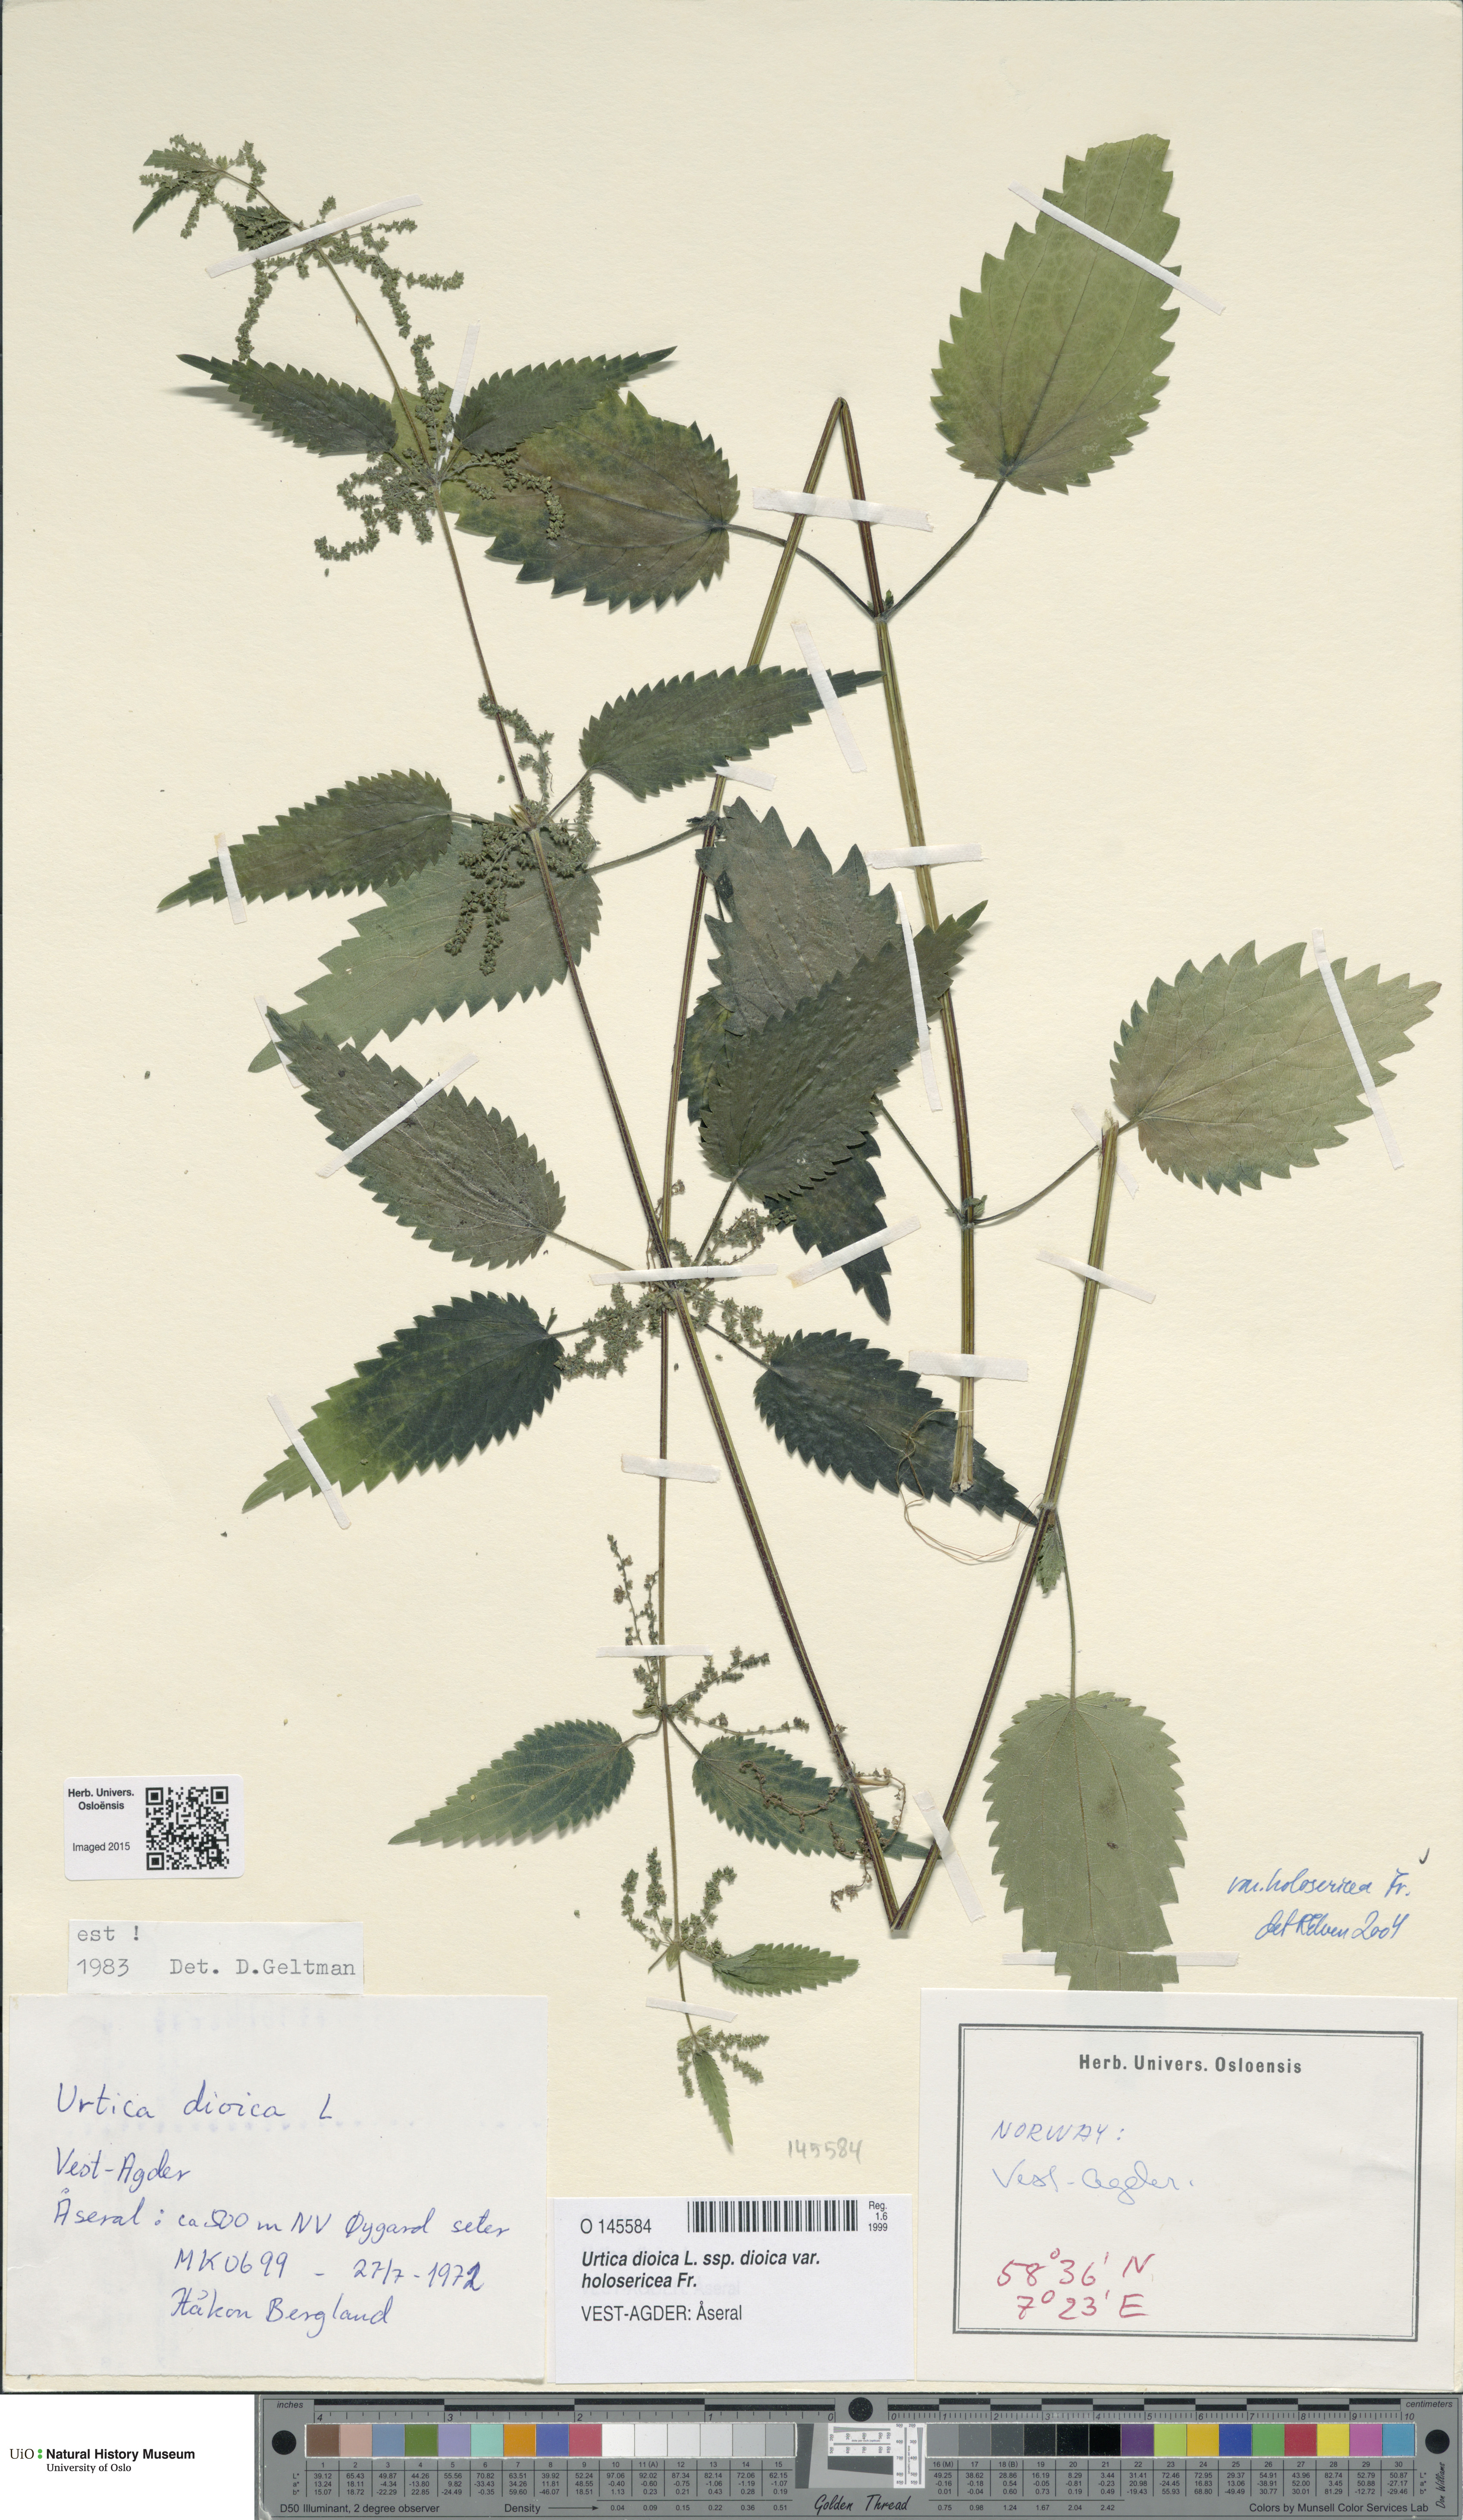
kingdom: Plantae
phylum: Tracheophyta
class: Magnoliopsida
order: Rosales
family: Urticaceae
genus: Urtica
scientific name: Urtica dioica
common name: Common nettle
